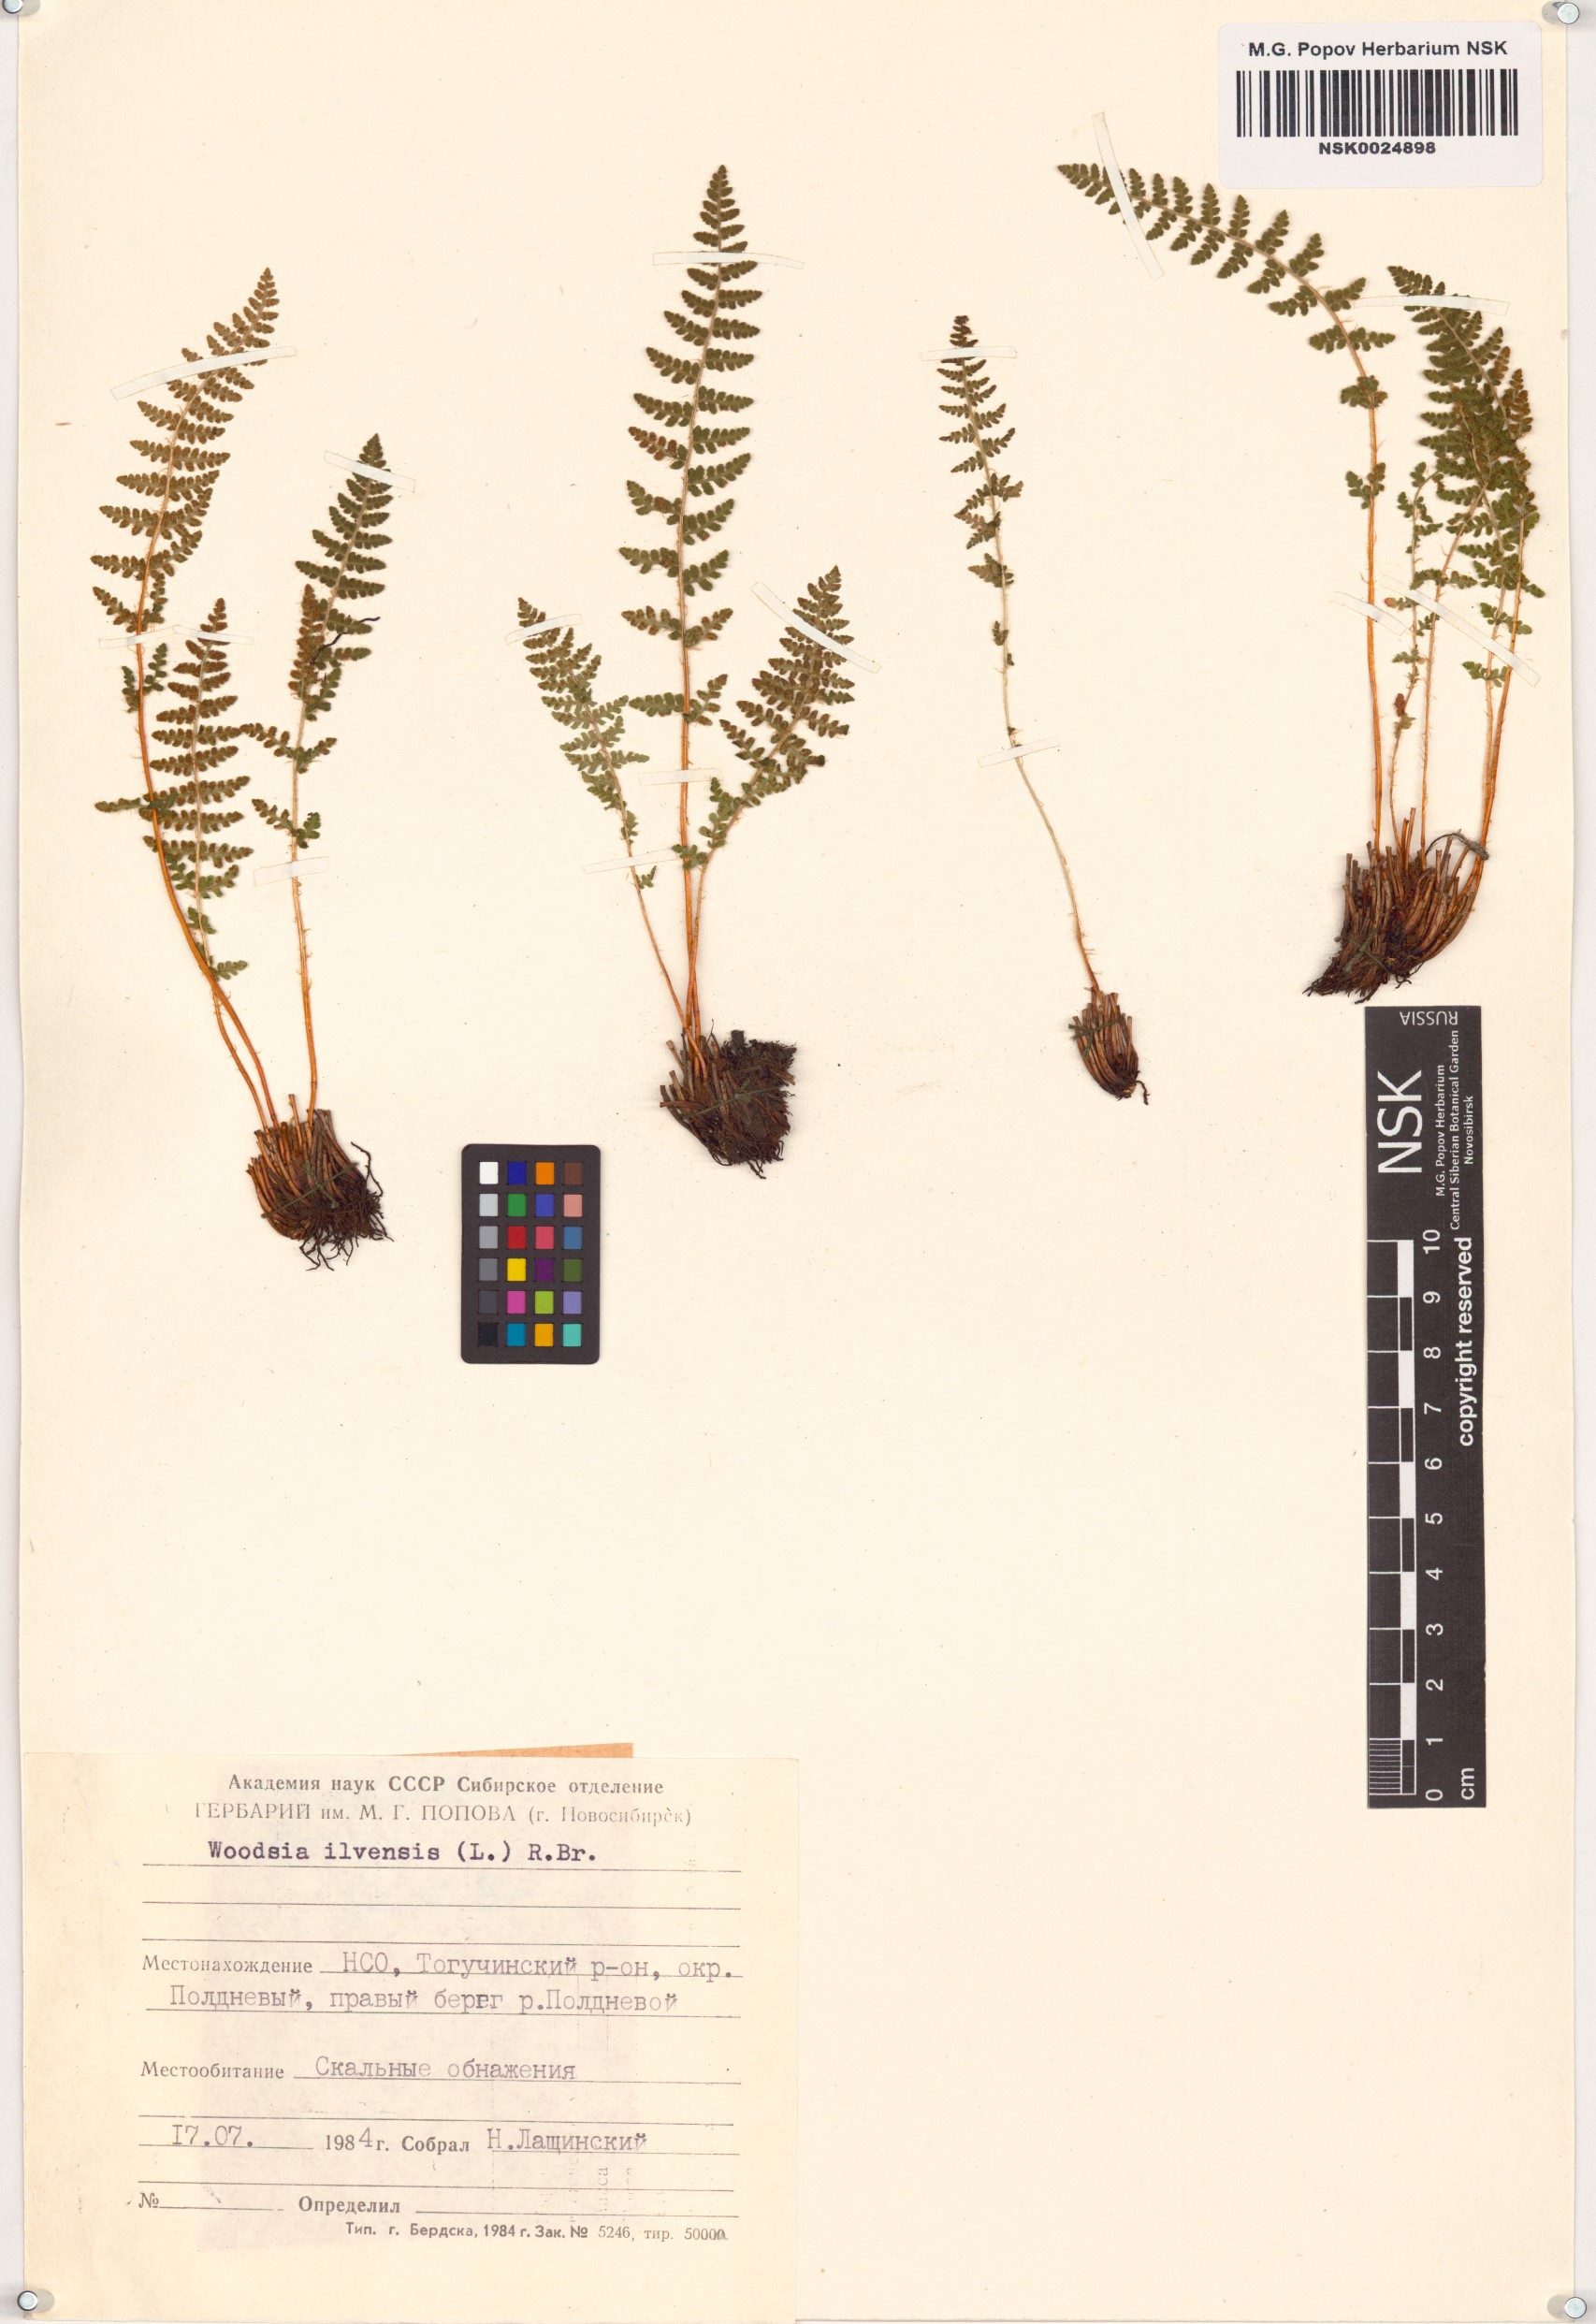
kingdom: Plantae
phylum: Tracheophyta
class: Polypodiopsida
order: Polypodiales
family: Woodsiaceae
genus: Woodsia
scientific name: Woodsia ilvensis
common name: Fragrant woodsia
